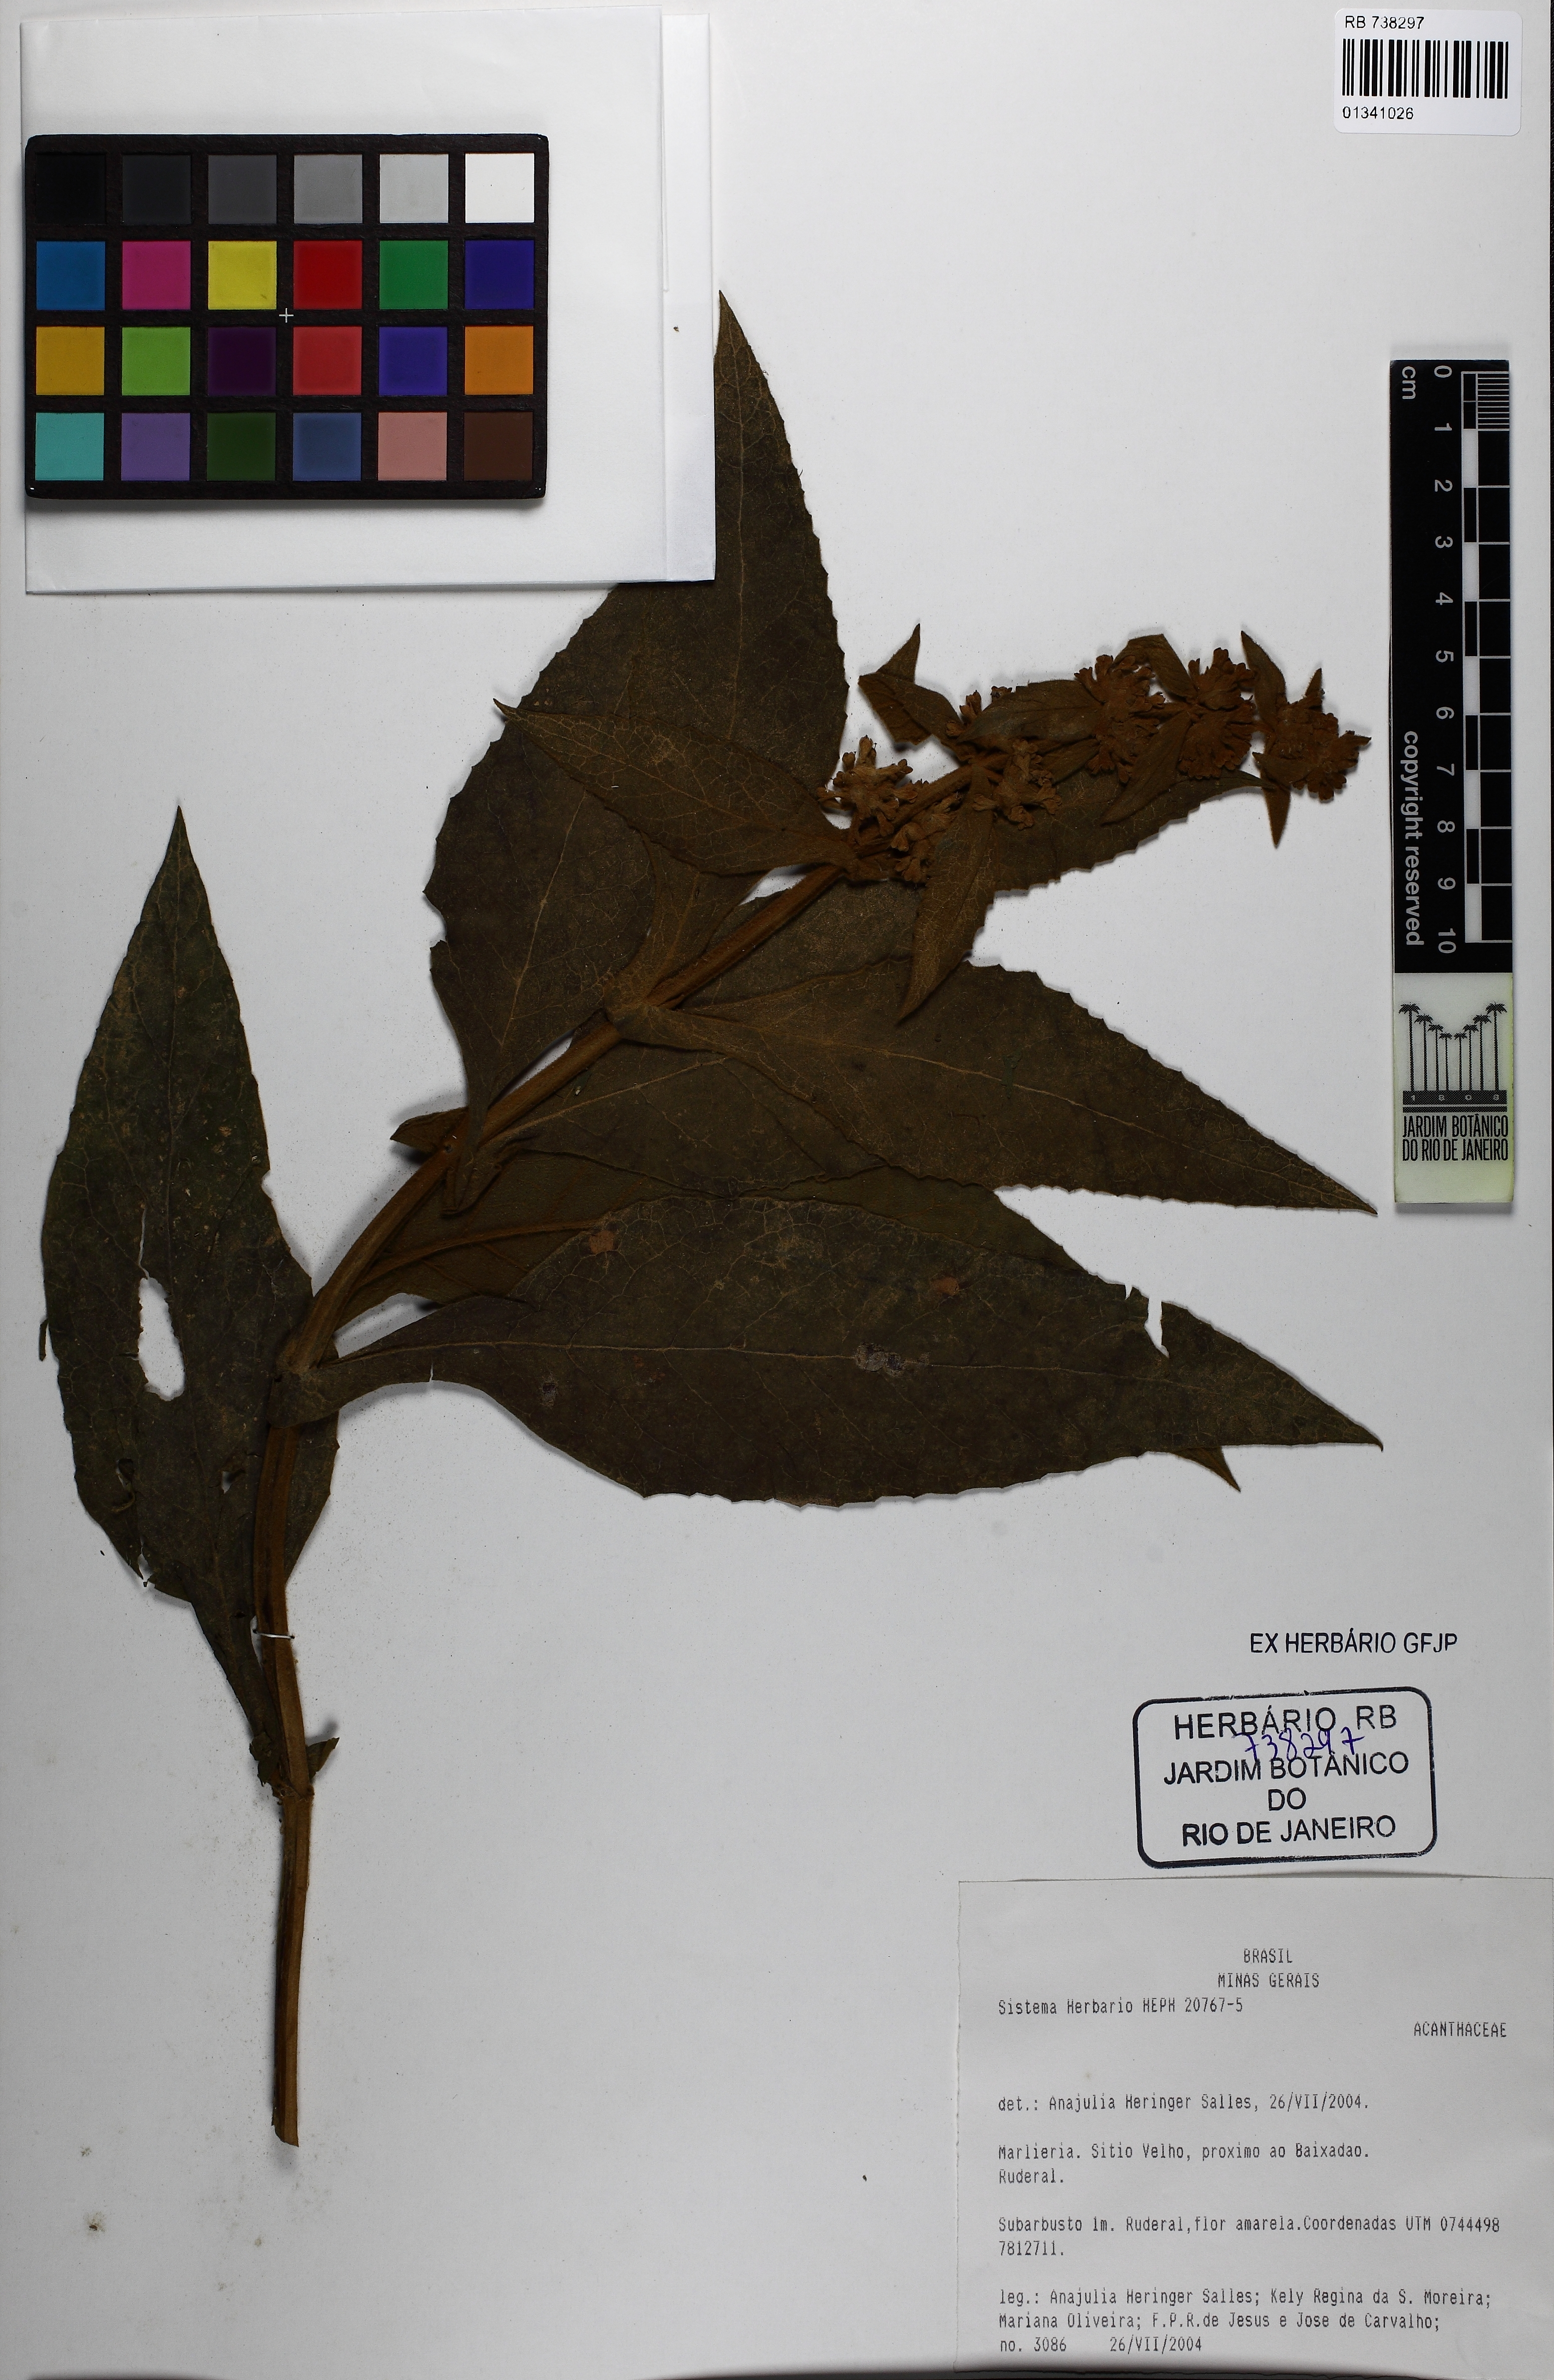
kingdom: Plantae
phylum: Tracheophyta
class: Magnoliopsida
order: Lamiales
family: Acanthaceae
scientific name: Acanthaceae
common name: Acanthaceae
